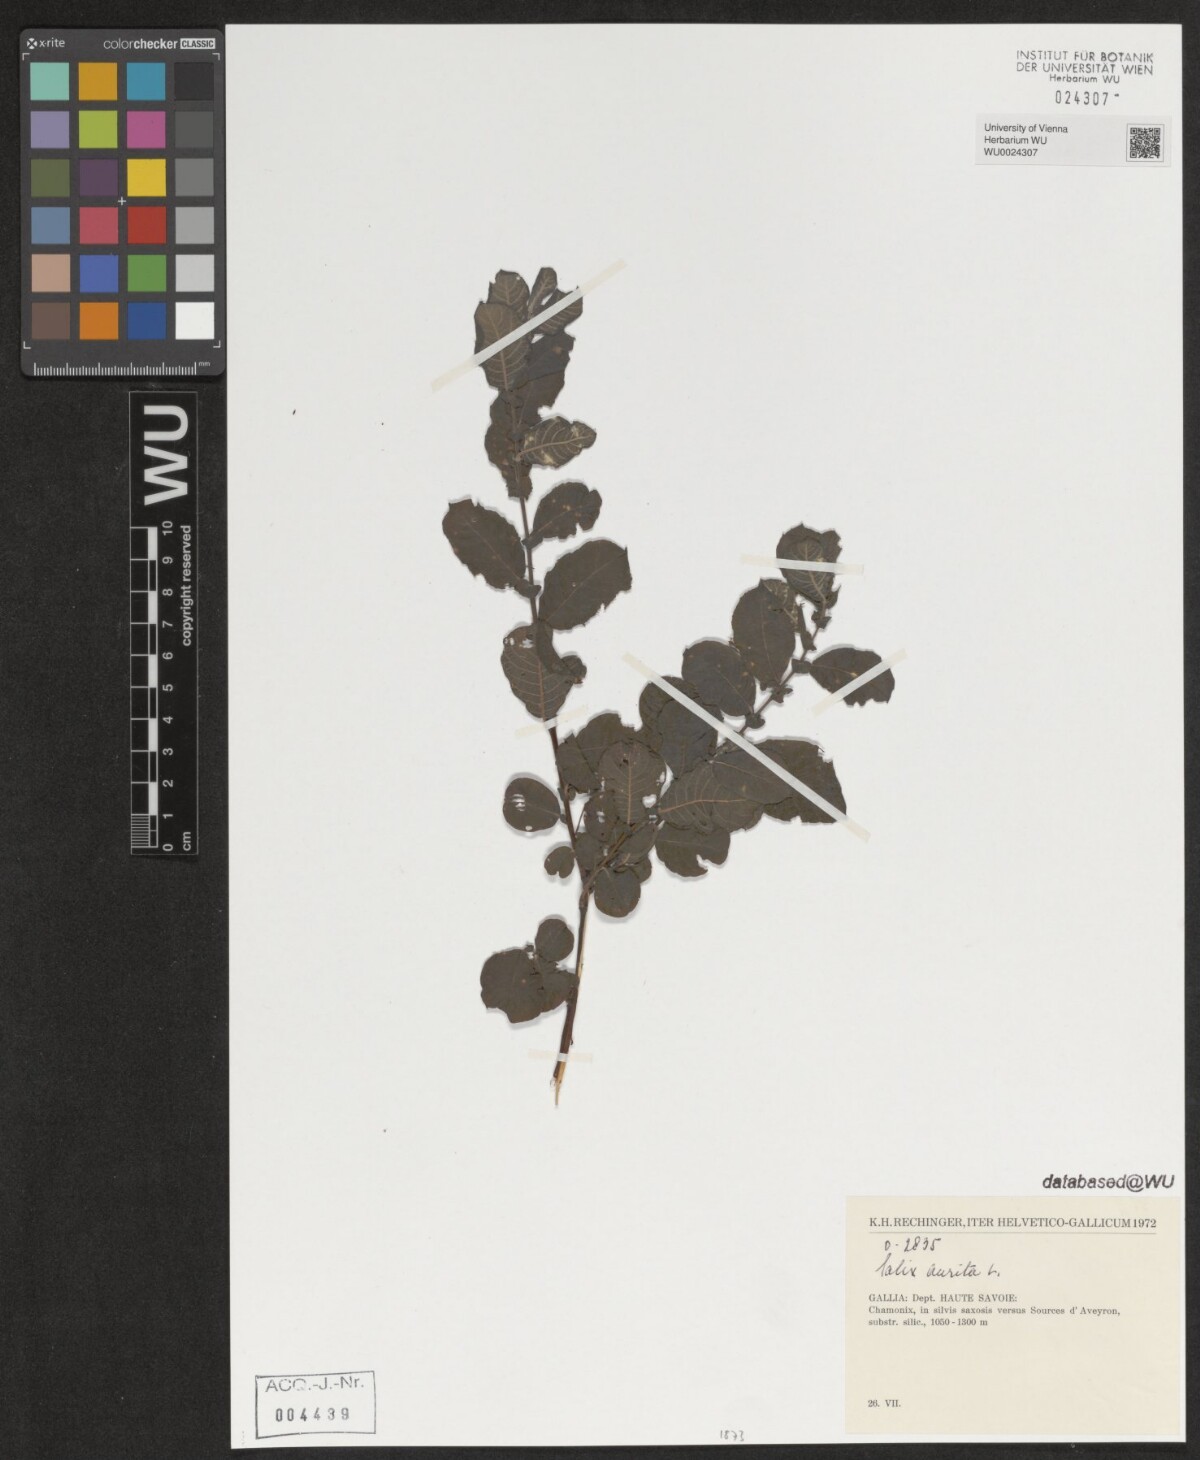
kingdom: Plantae
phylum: Tracheophyta
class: Magnoliopsida
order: Malpighiales
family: Salicaceae
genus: Salix
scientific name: Salix aurita
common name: Eared willow
